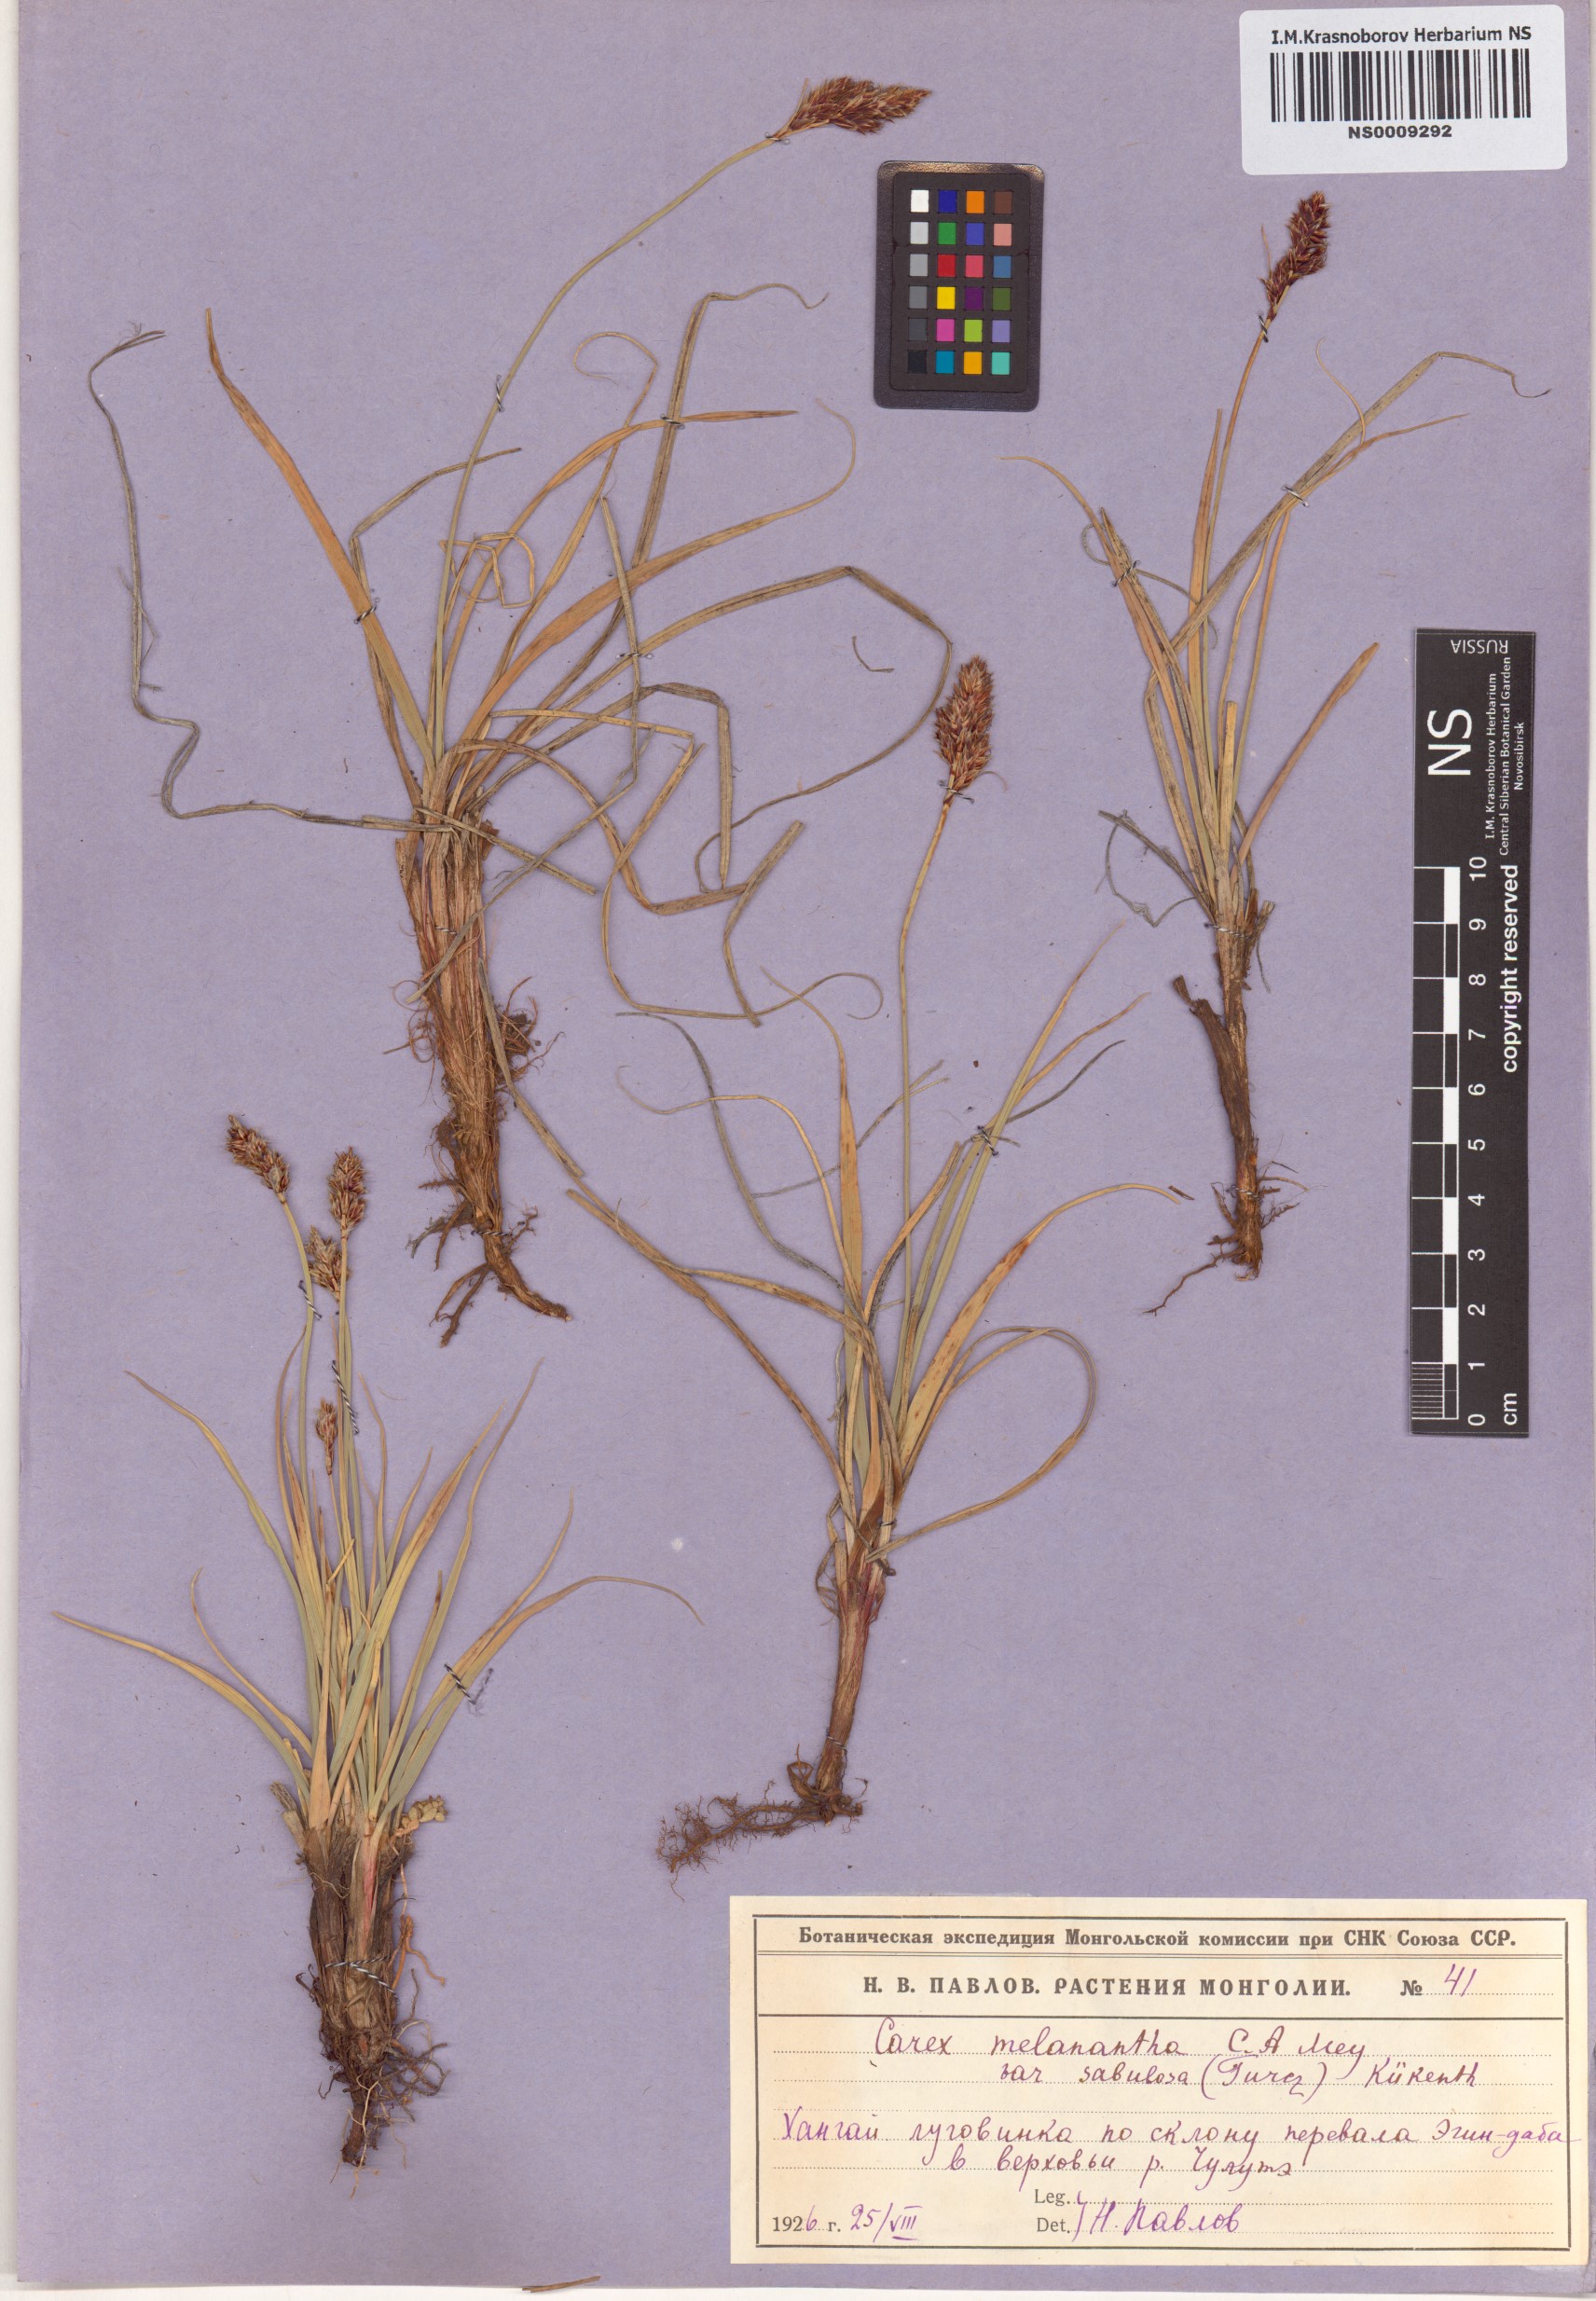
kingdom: Plantae
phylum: Tracheophyta
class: Liliopsida
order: Poales
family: Cyperaceae
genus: Carex
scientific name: Carex sabulosa
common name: Baikal sedge
